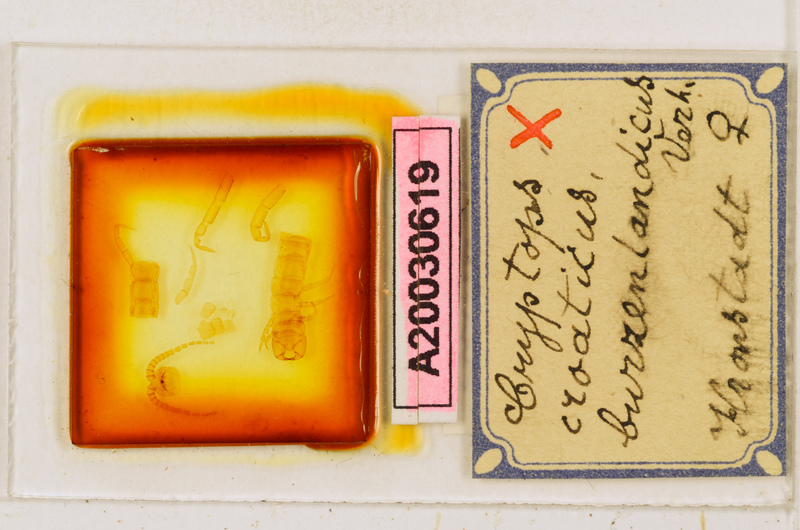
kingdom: Animalia
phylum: Arthropoda
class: Chilopoda
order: Scolopendromorpha
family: Cryptopidae
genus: Cryptops
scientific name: Cryptops croaticus
